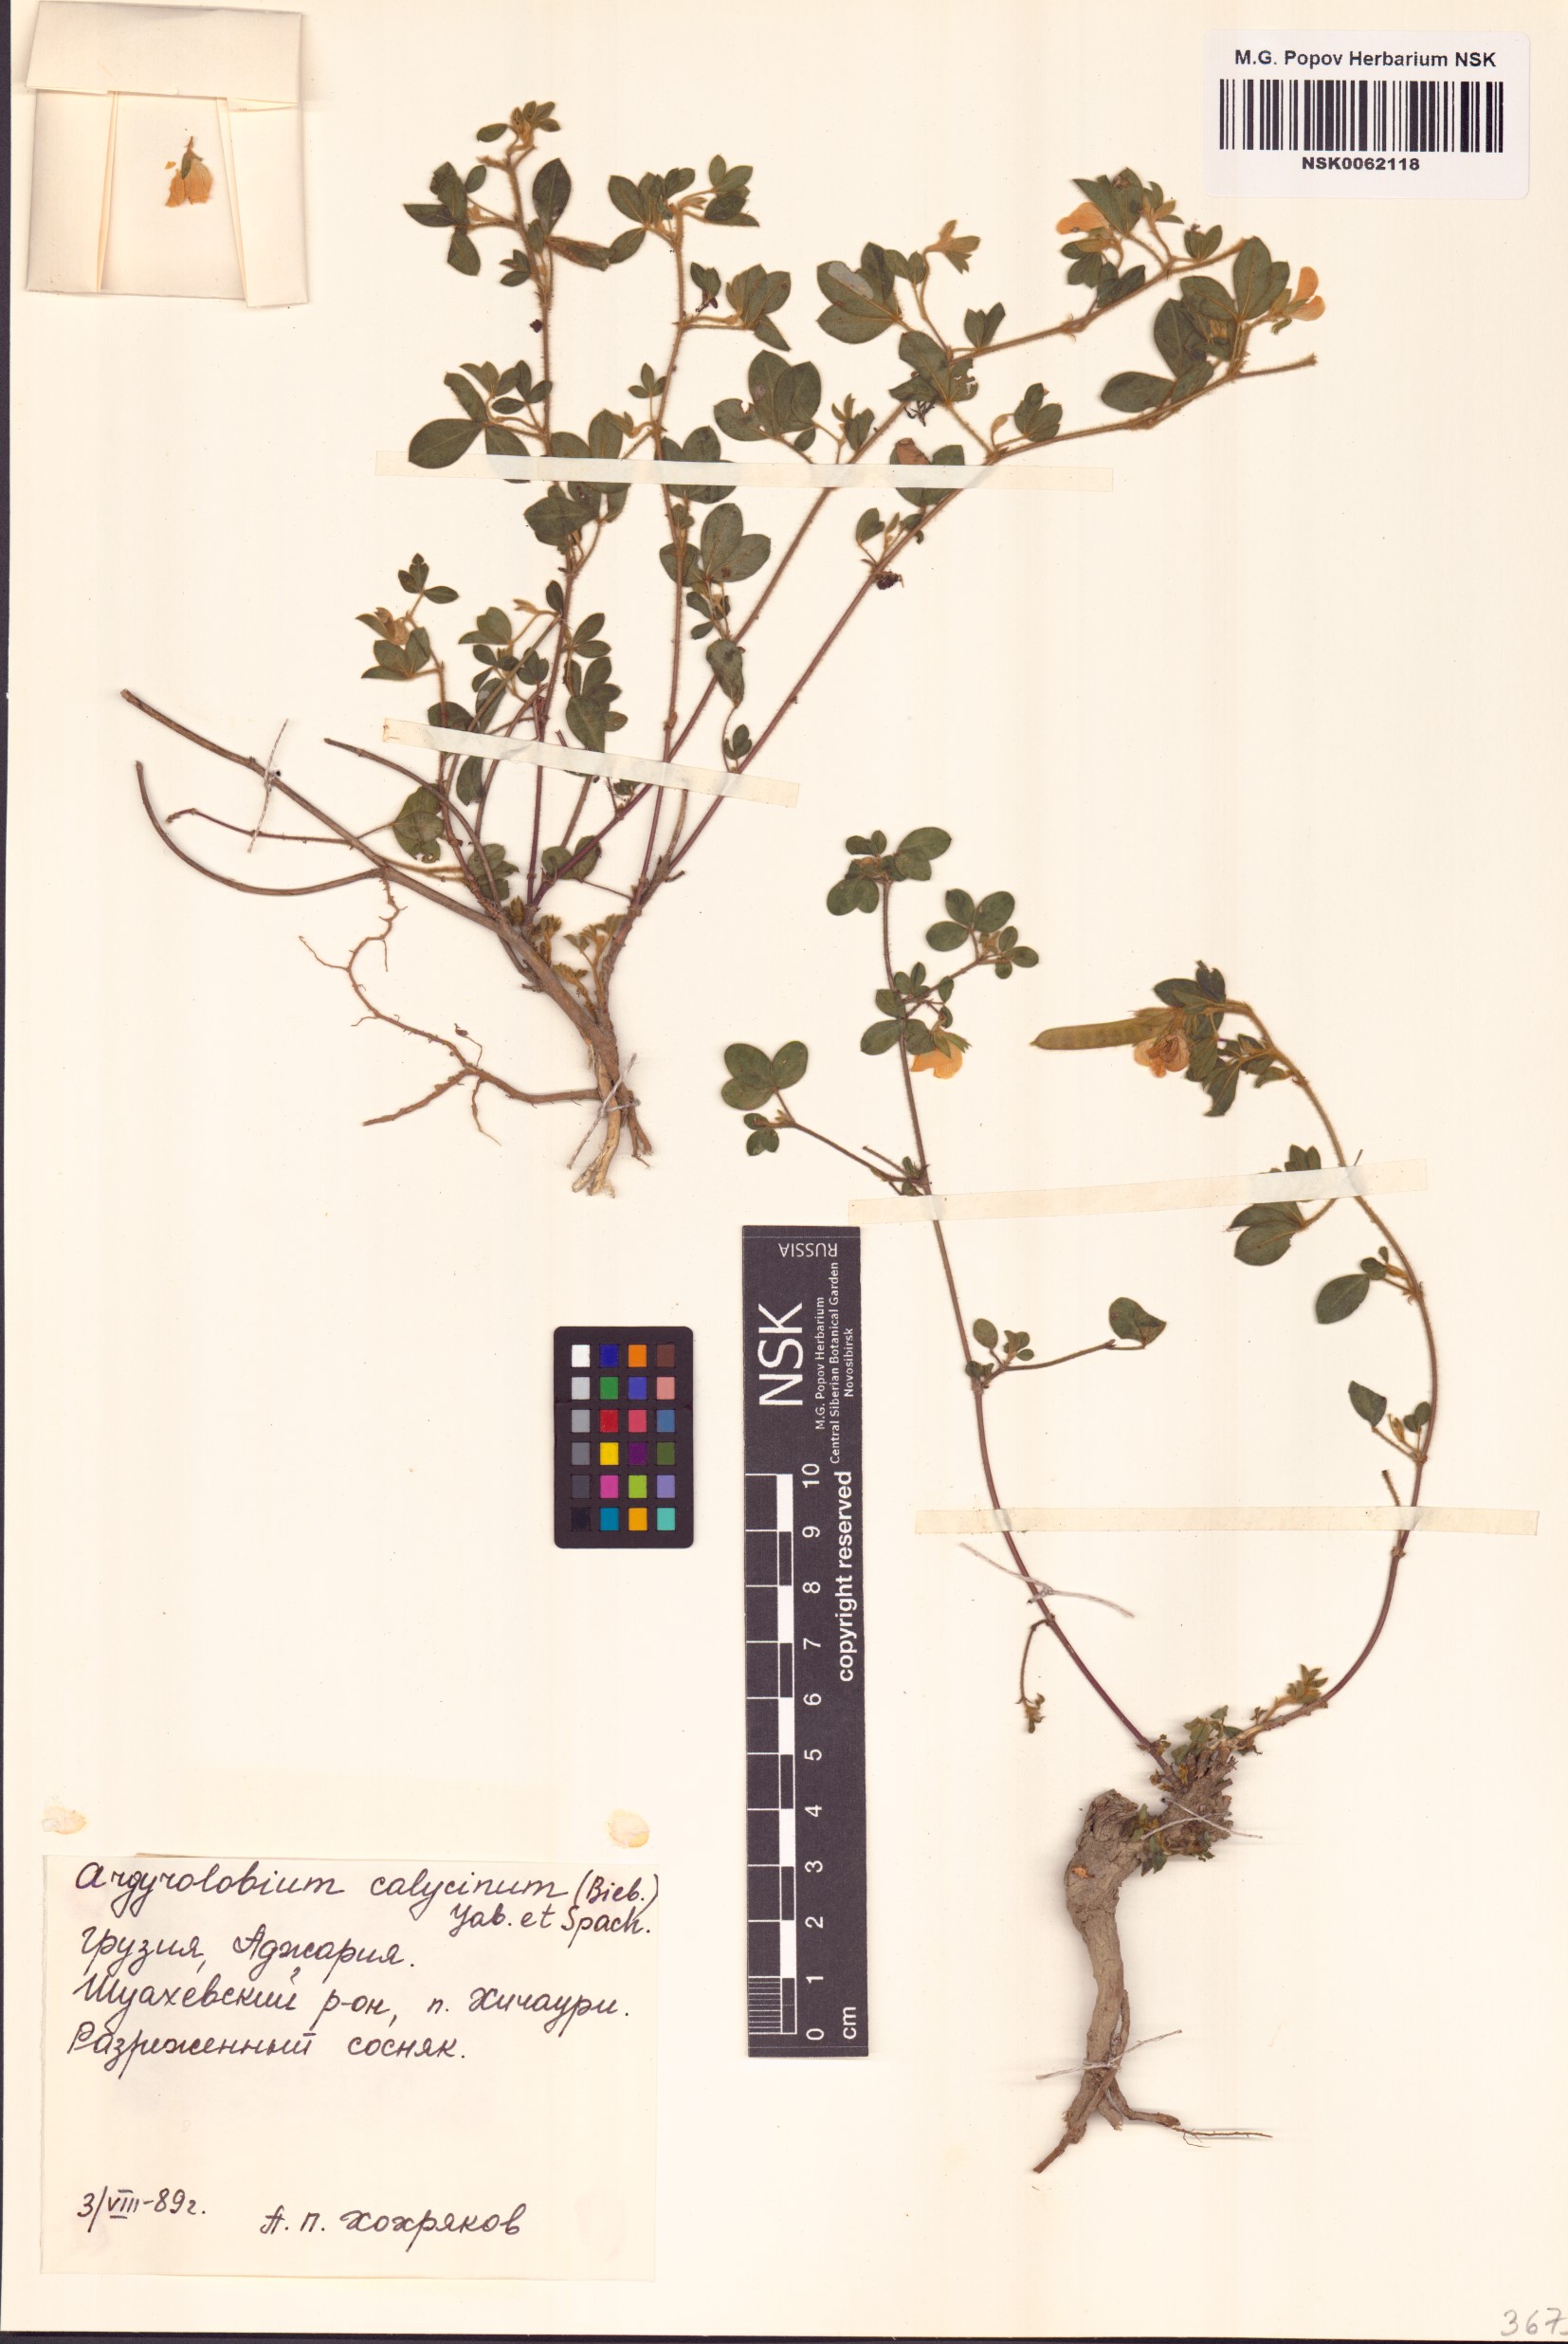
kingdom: Plantae
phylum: Tracheophyta
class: Magnoliopsida
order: Fabales
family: Fabaceae
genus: Argyrolobium
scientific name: Argyrolobium biebersteinii
